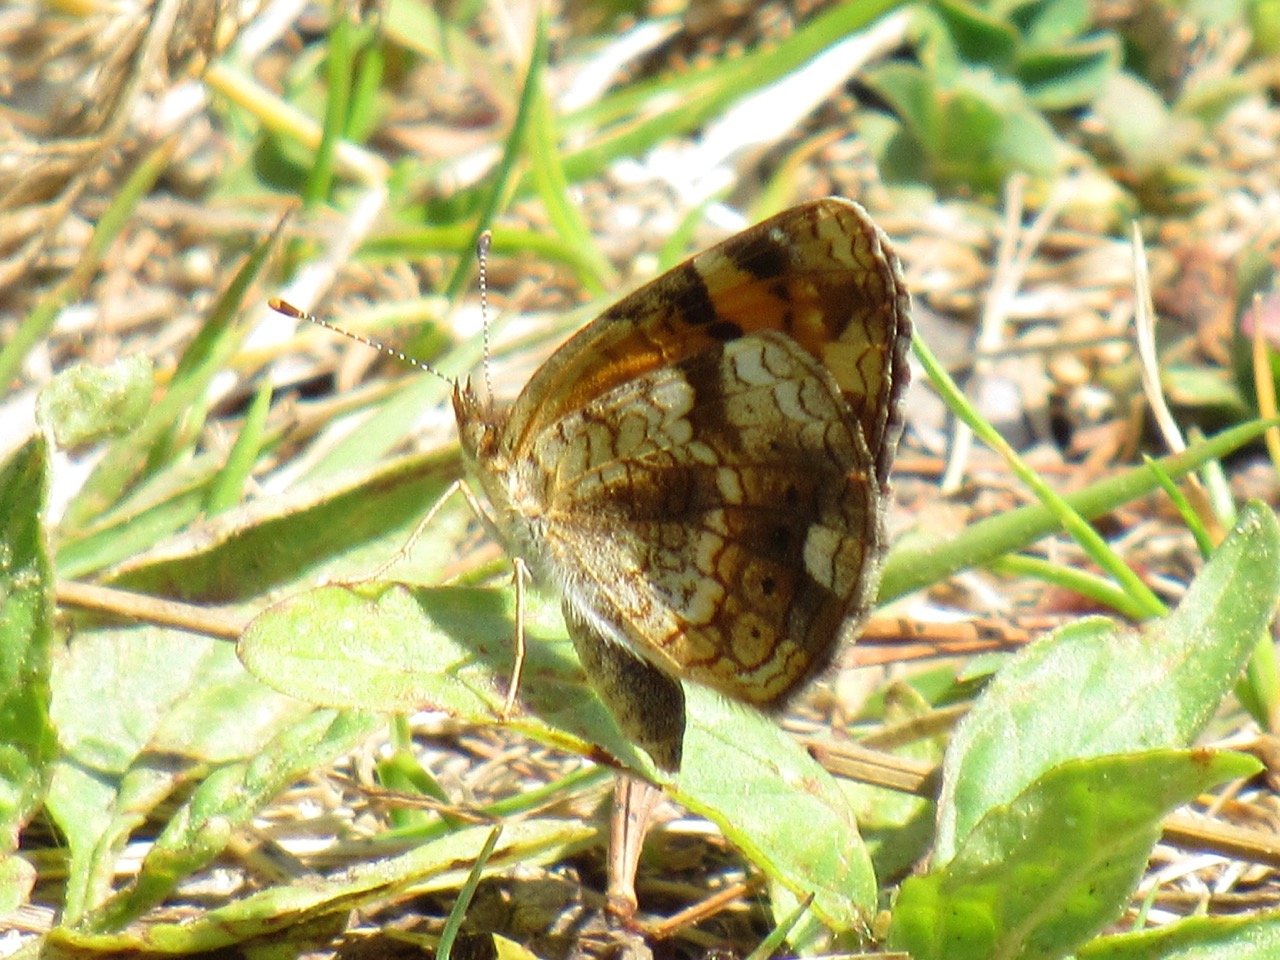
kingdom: Animalia
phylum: Arthropoda
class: Insecta
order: Lepidoptera
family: Nymphalidae
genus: Phyciodes
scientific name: Phyciodes tharos
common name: Pearl Crescent
